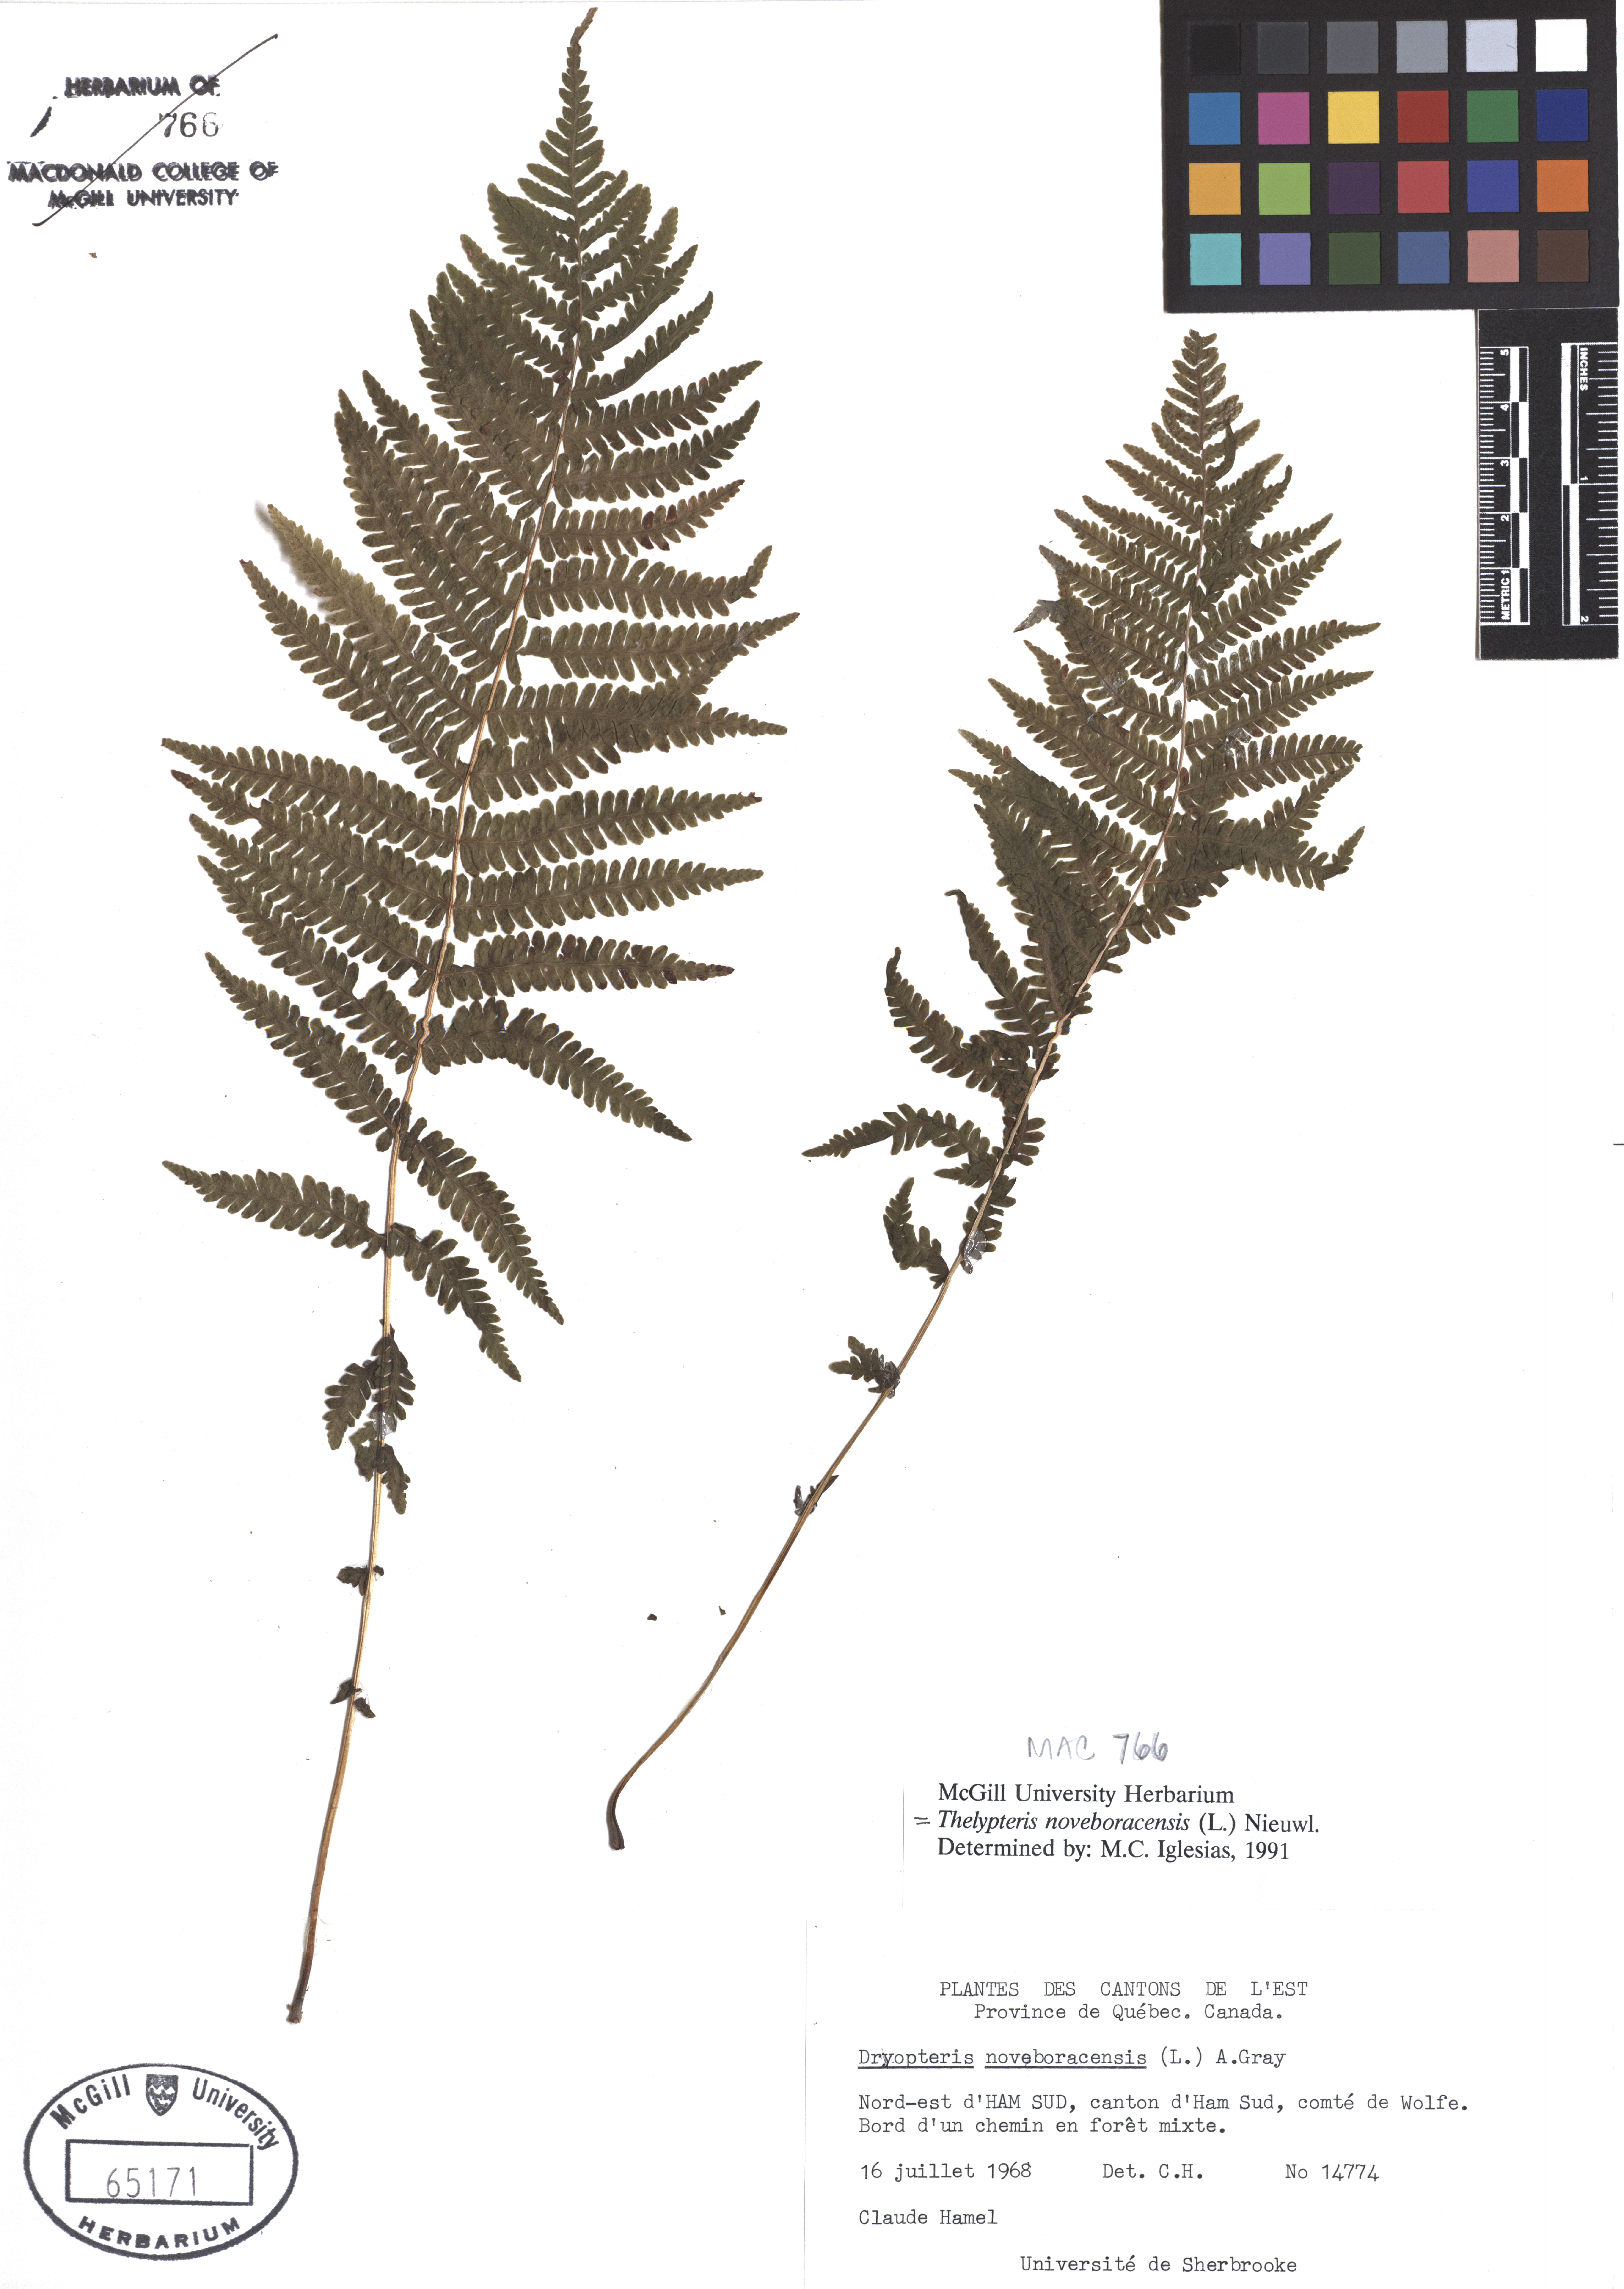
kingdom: Plantae
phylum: Tracheophyta
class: Polypodiopsida
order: Polypodiales
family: Thelypteridaceae
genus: Amauropelta
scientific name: Amauropelta noveboracensis
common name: New york fern
